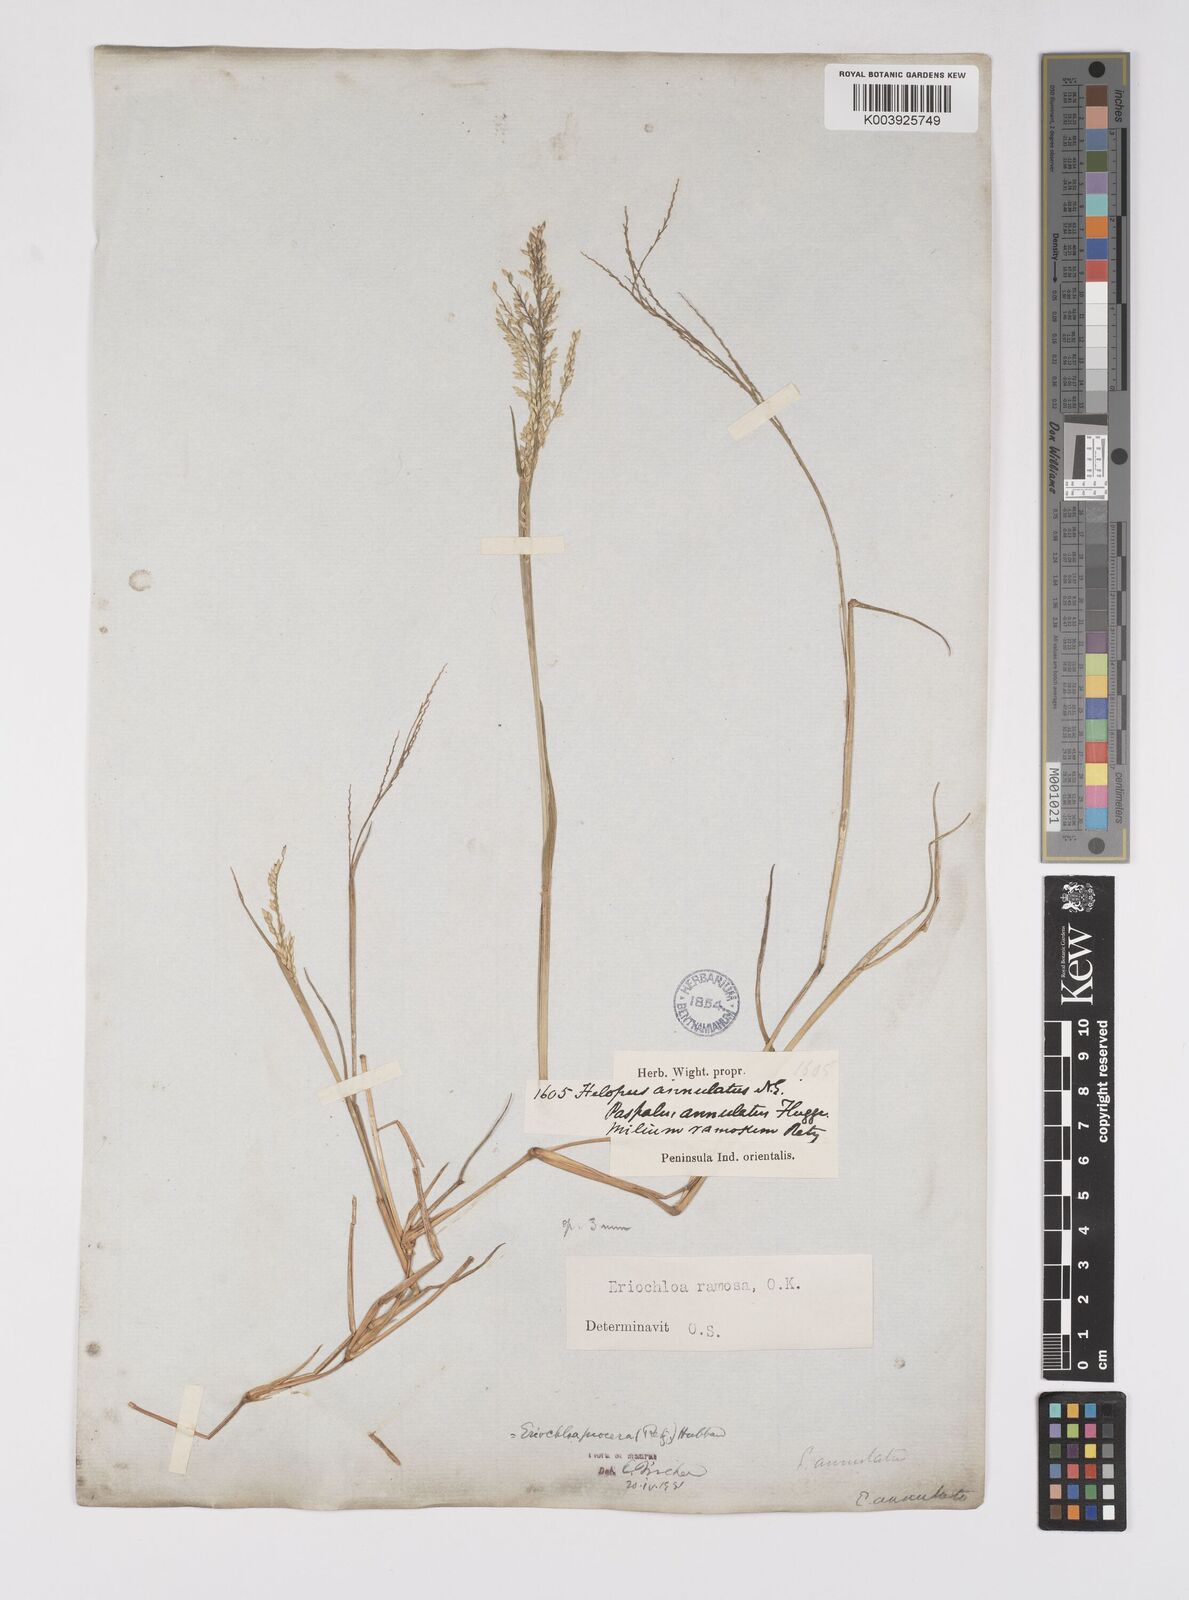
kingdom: Plantae
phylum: Tracheophyta
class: Liliopsida
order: Poales
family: Poaceae
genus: Eriochloa
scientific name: Eriochloa procera
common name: Spring grass
